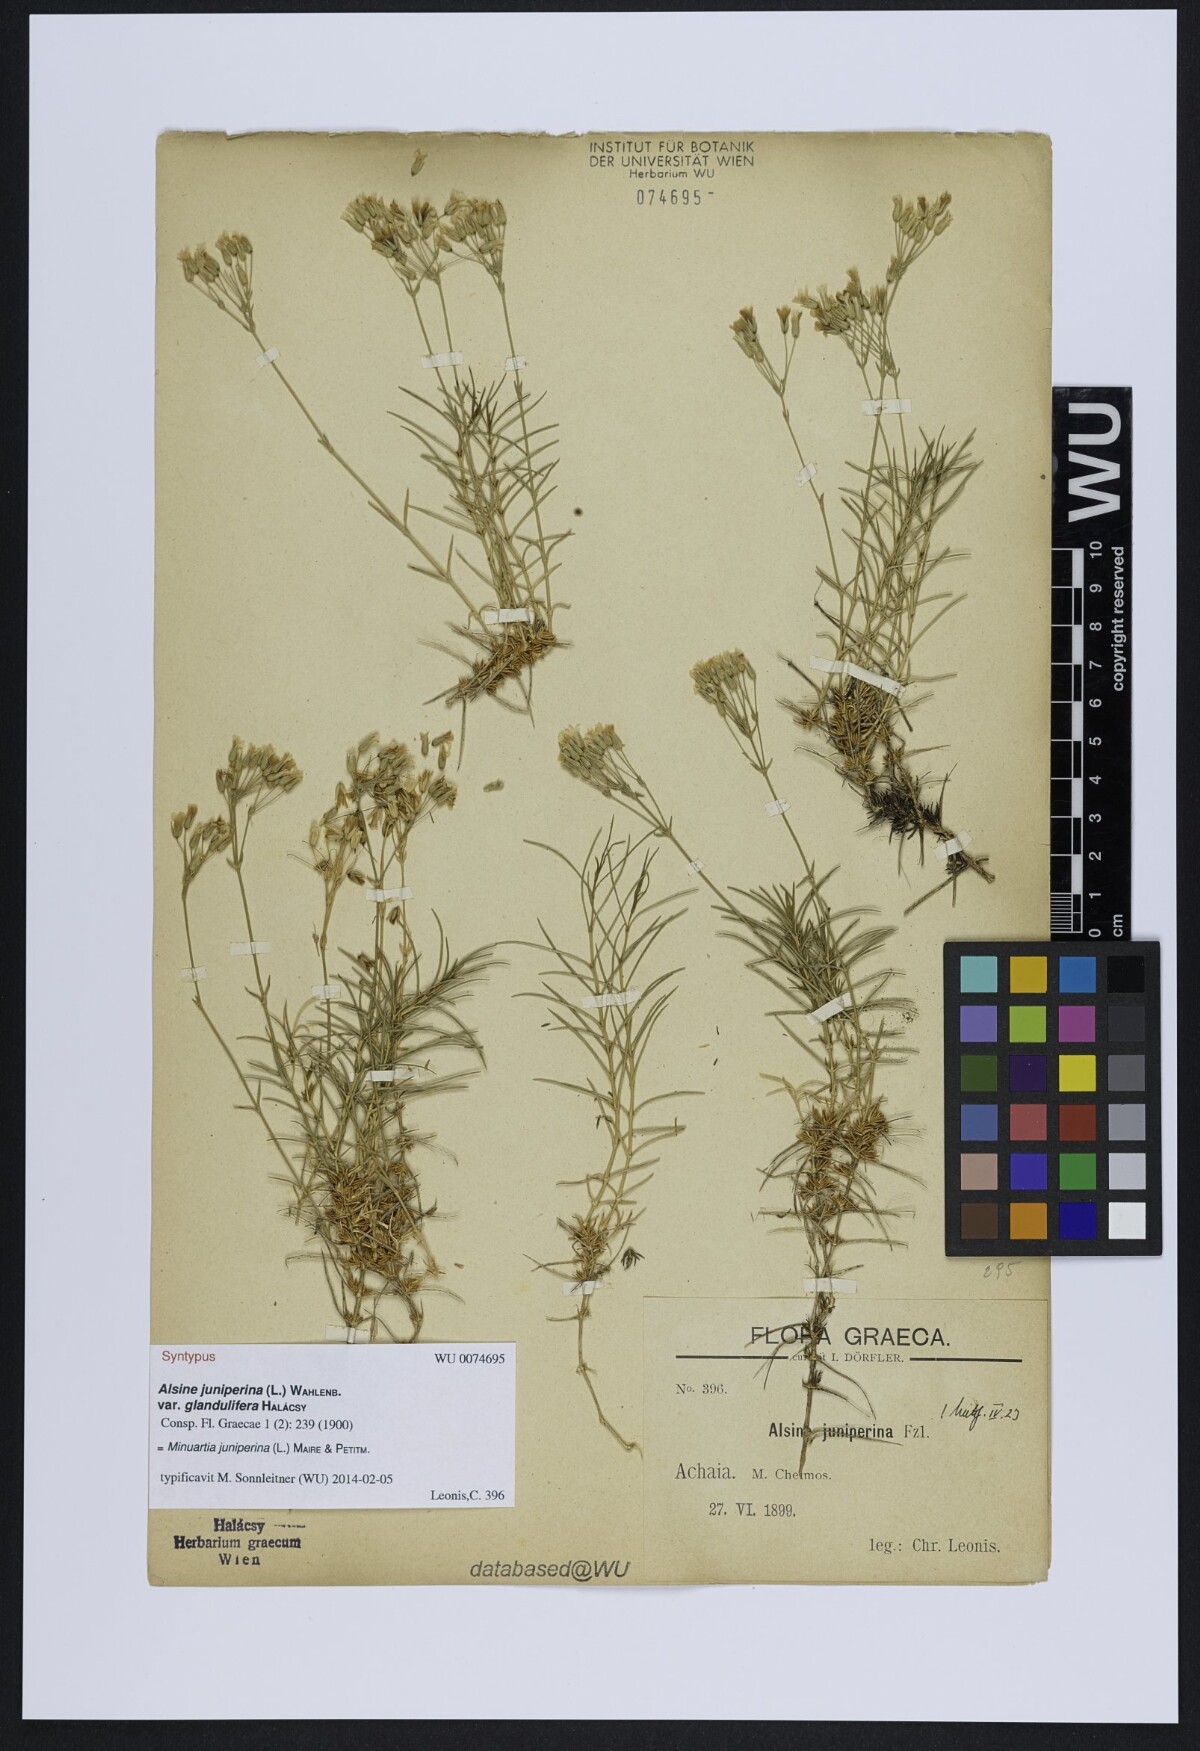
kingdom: Plantae
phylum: Tracheophyta
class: Magnoliopsida
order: Caryophyllales
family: Caryophyllaceae
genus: Sabulina
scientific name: Sabulina juniperina
